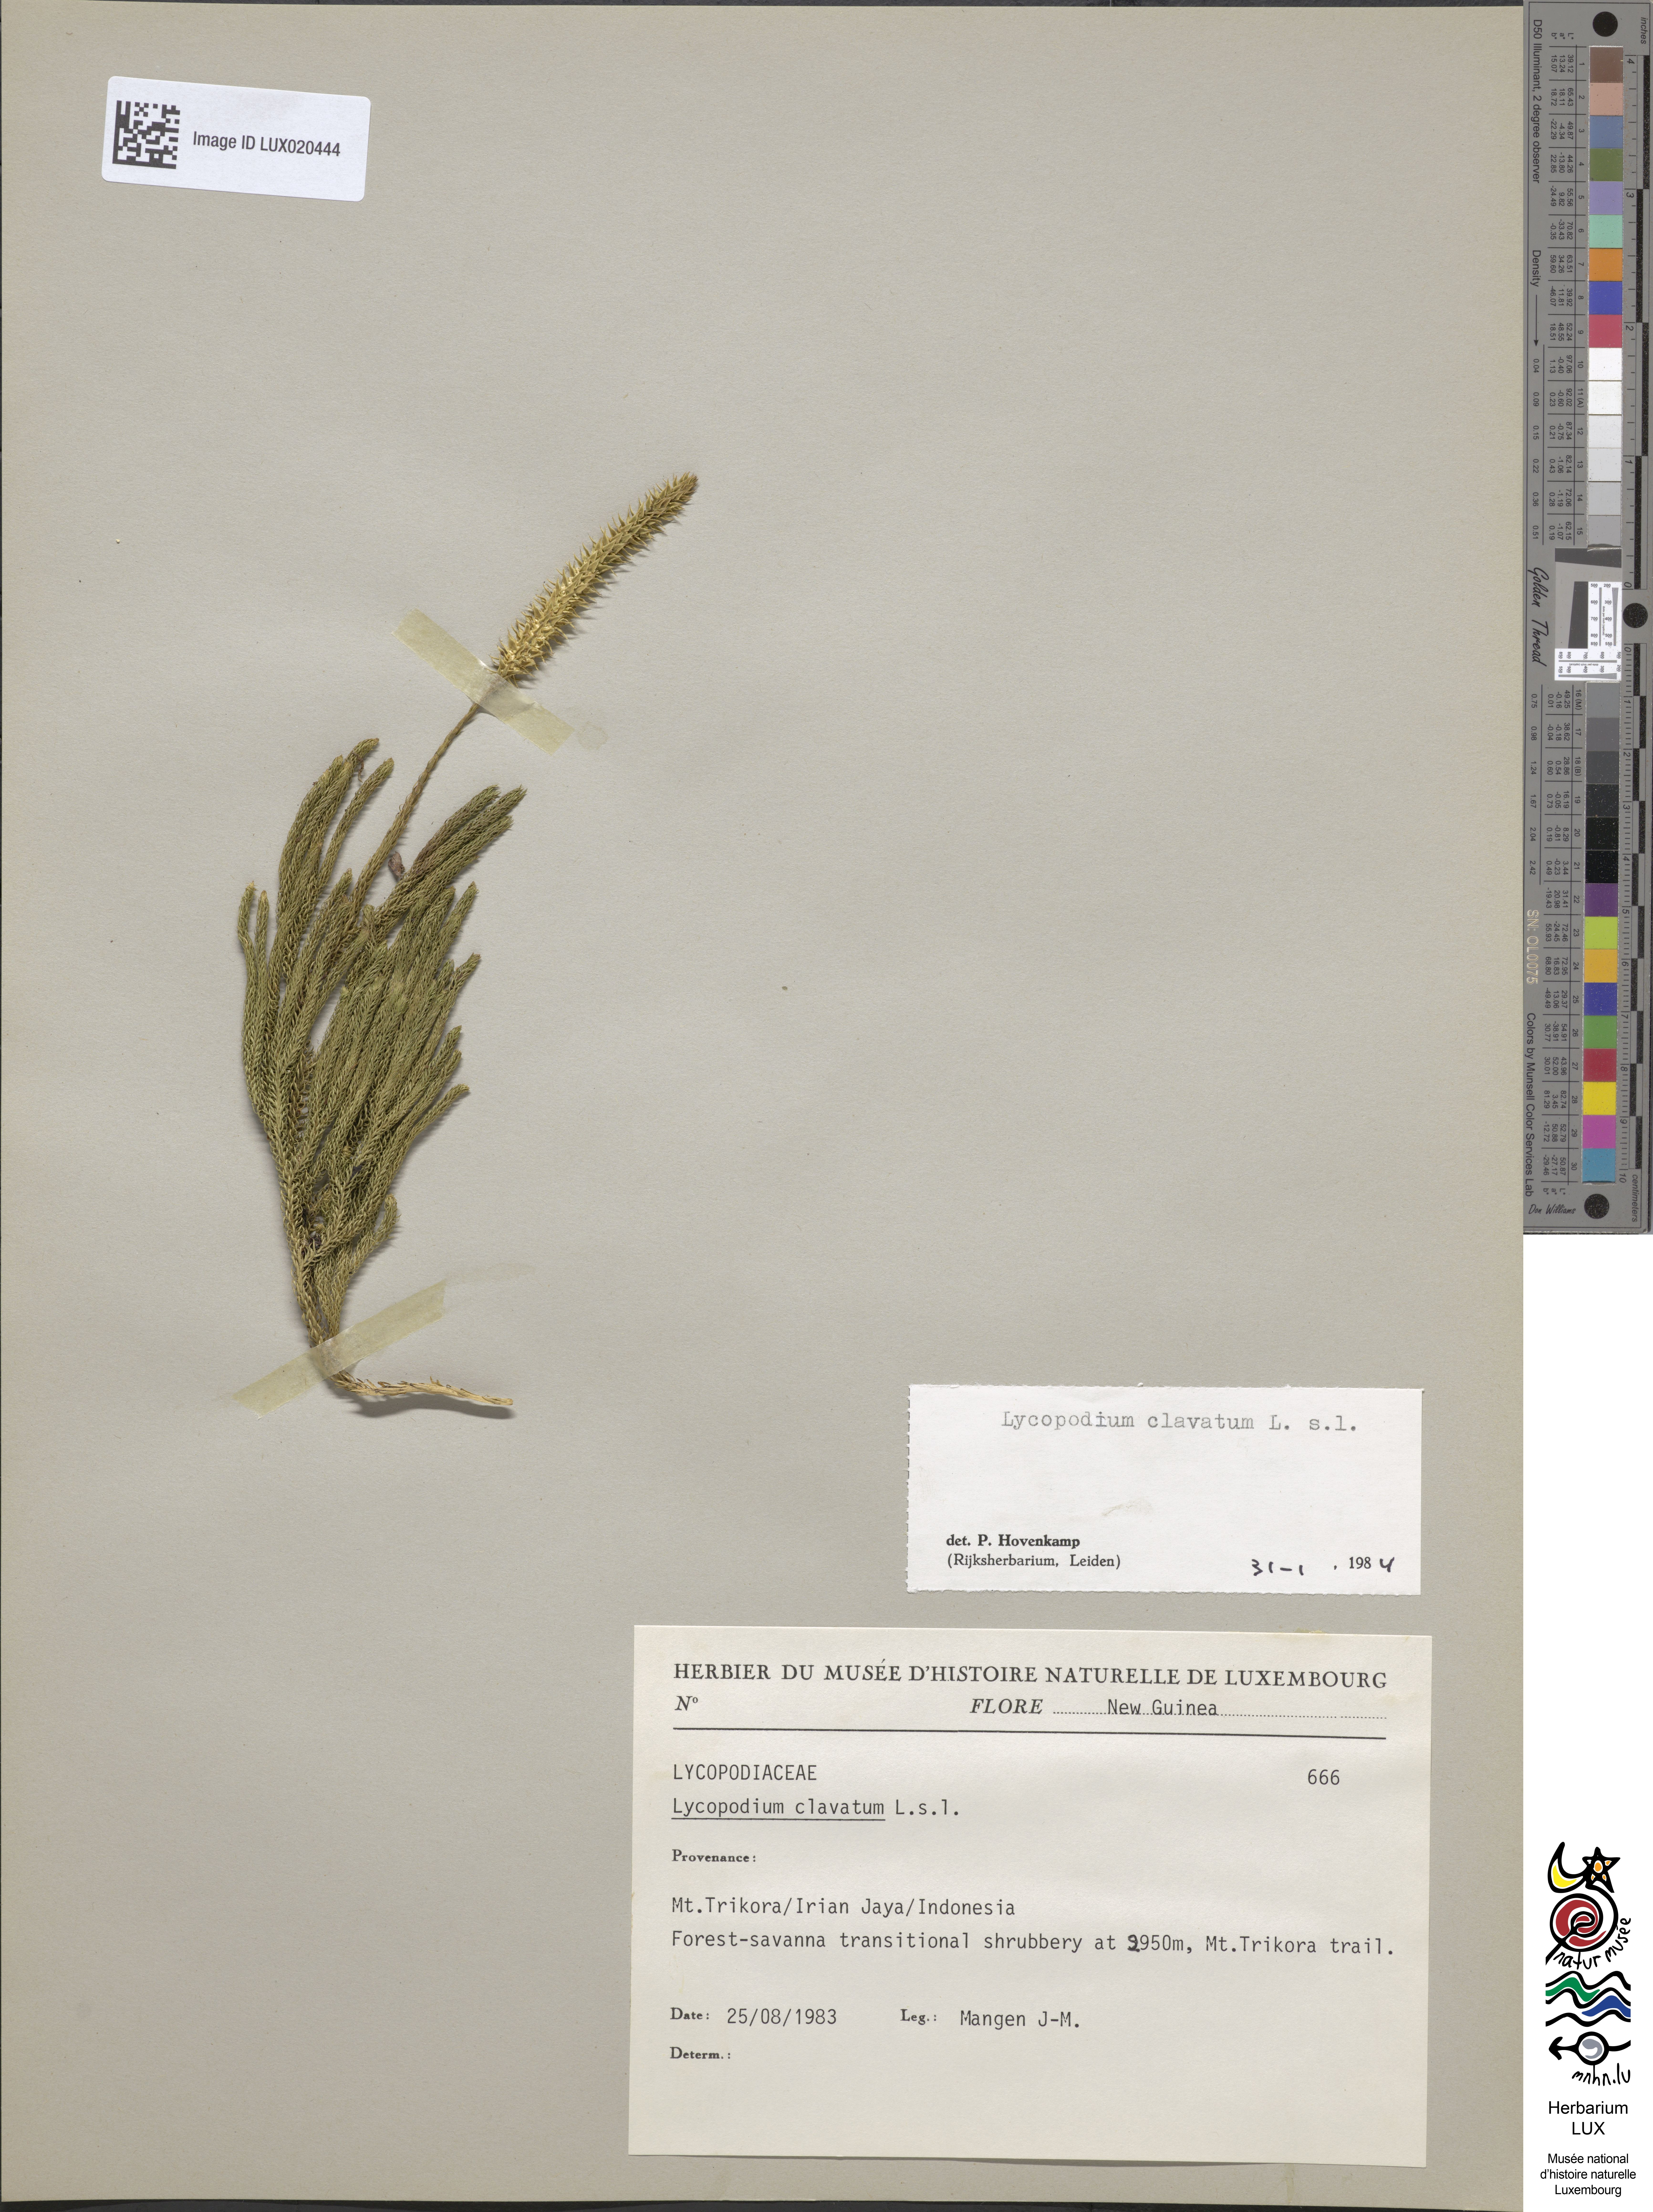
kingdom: Plantae
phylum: Tracheophyta
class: Lycopodiopsida
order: Lycopodiales
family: Lycopodiaceae
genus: Lycopodium
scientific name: Lycopodium clavatum
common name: Stag's-horn clubmoss
